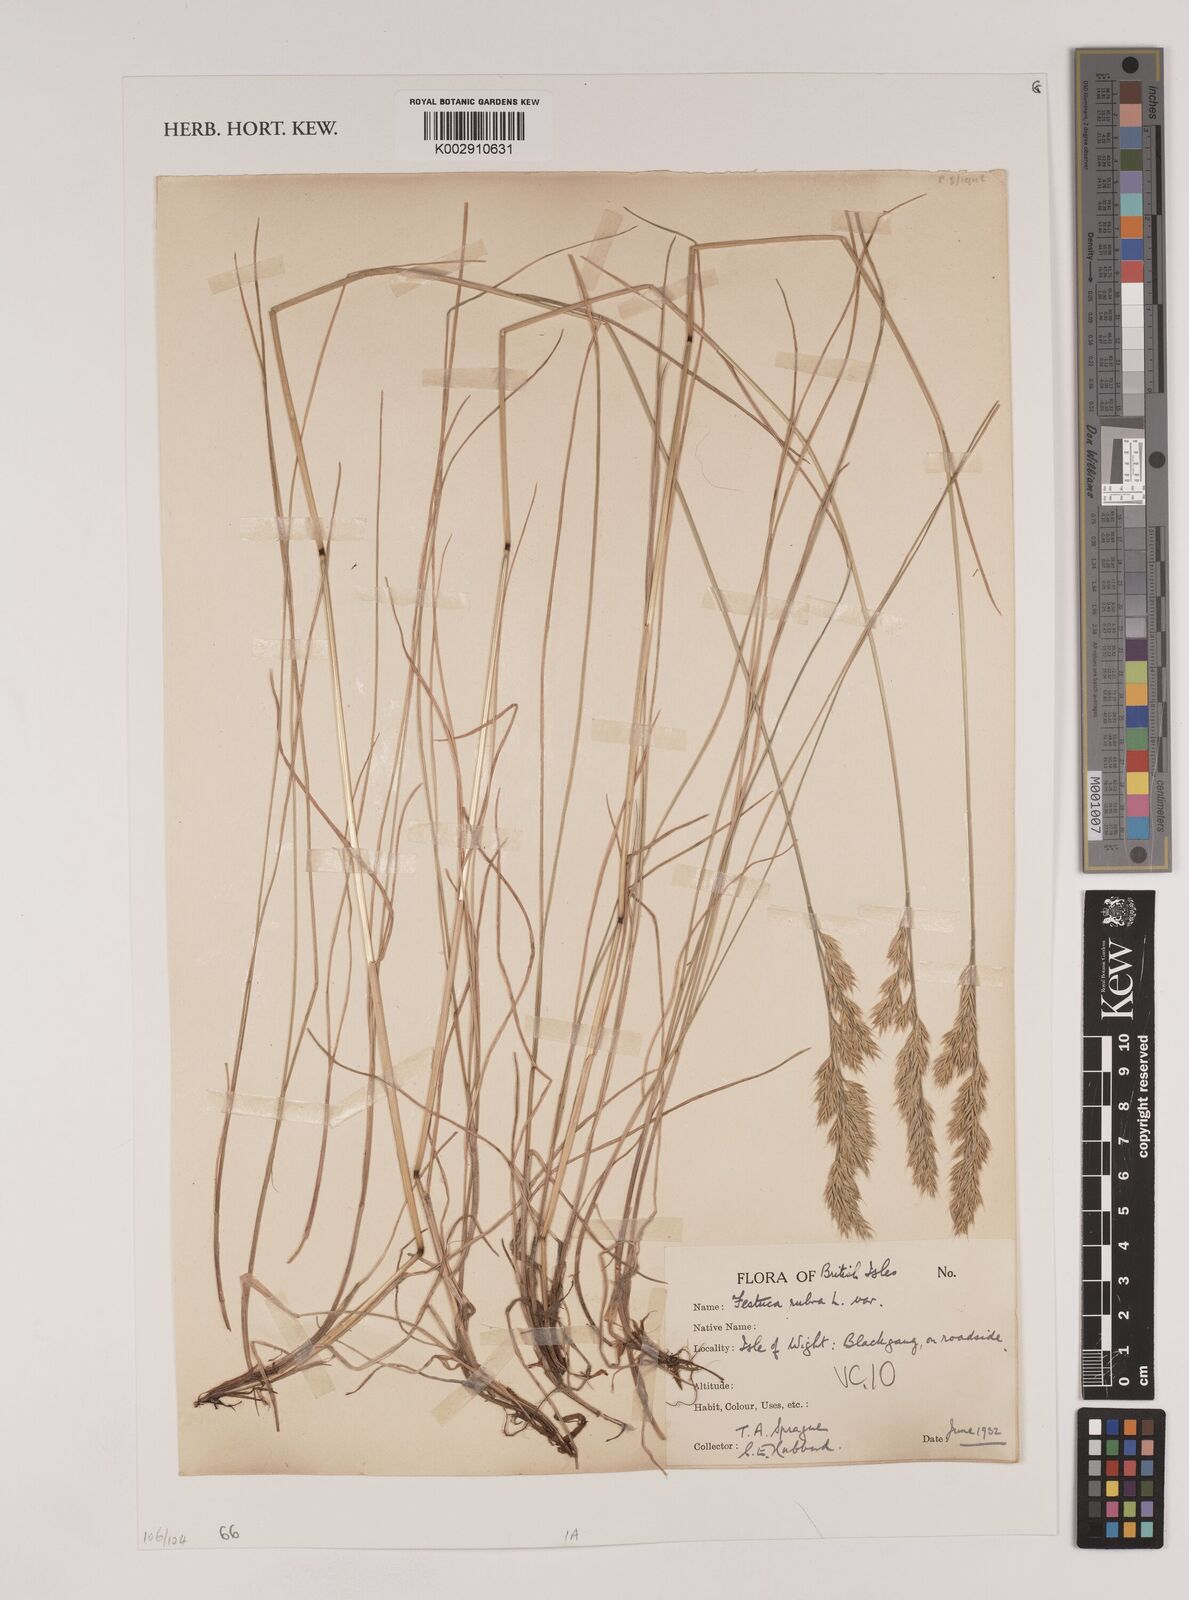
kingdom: Plantae
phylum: Tracheophyta
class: Liliopsida
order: Poales
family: Poaceae
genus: Festuca
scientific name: Festuca rubra
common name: Red fescue
